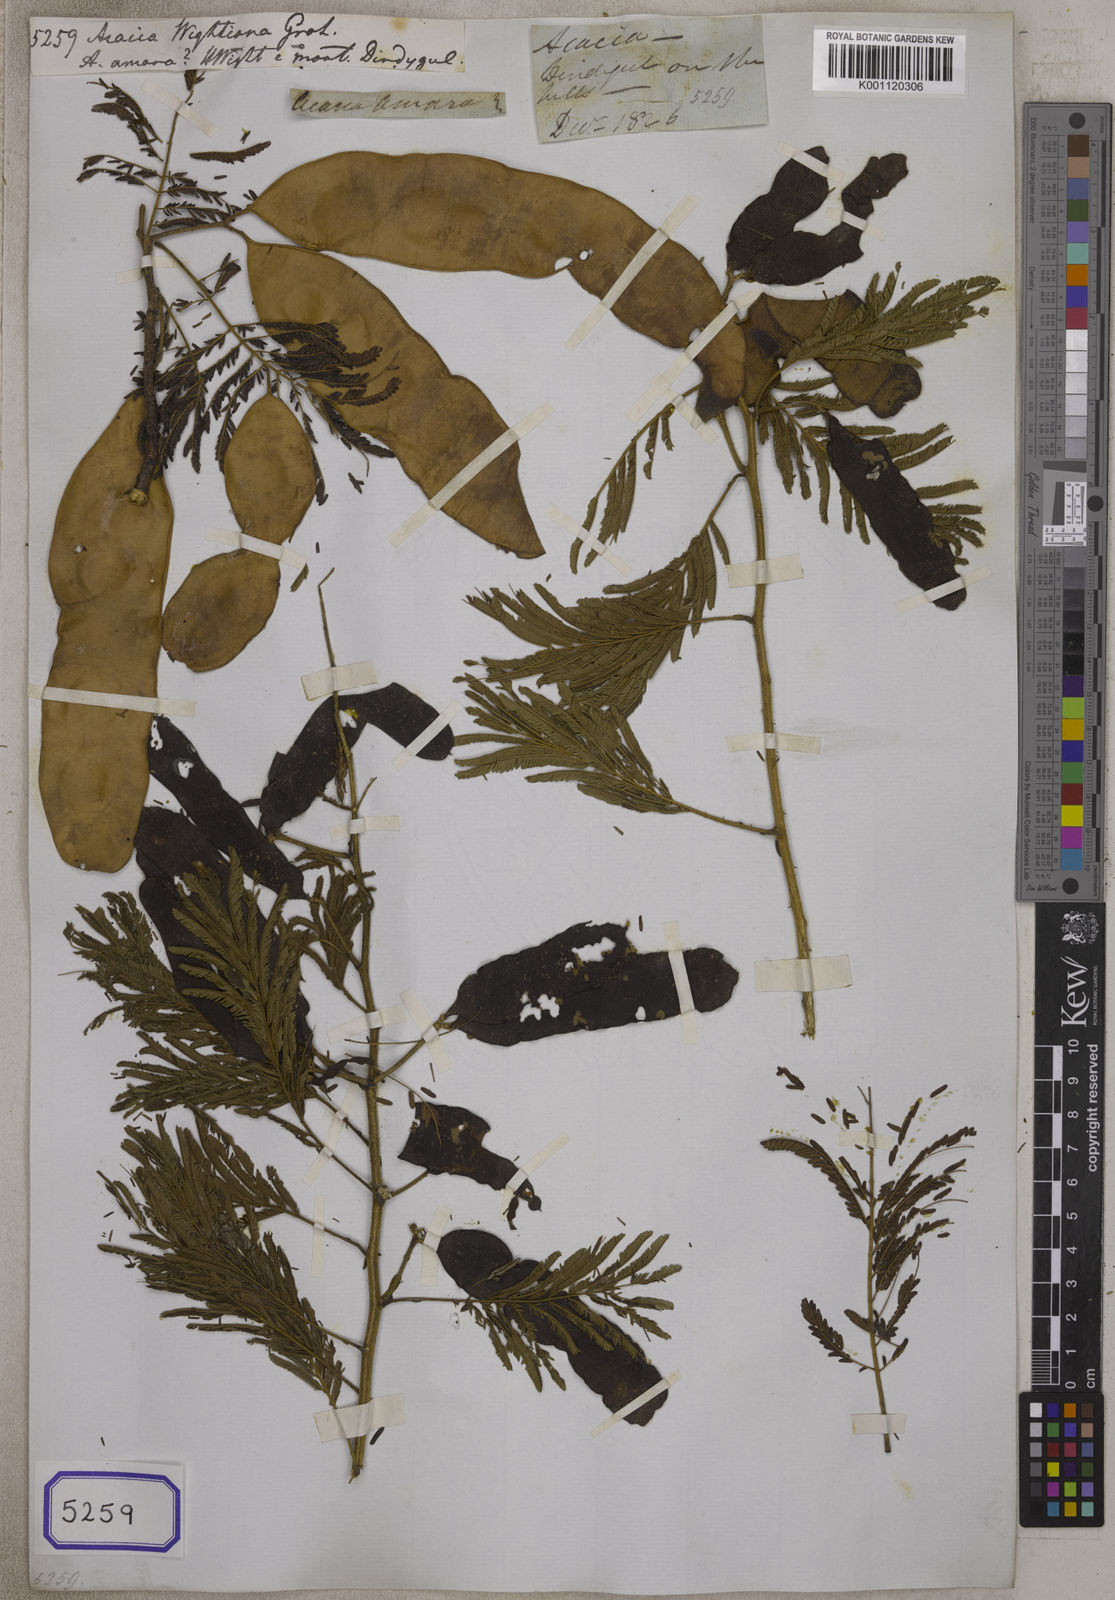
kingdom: Plantae
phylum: Tracheophyta
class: Magnoliopsida
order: Fabales
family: Fabaceae
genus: Albizia
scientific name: Albizia amara
